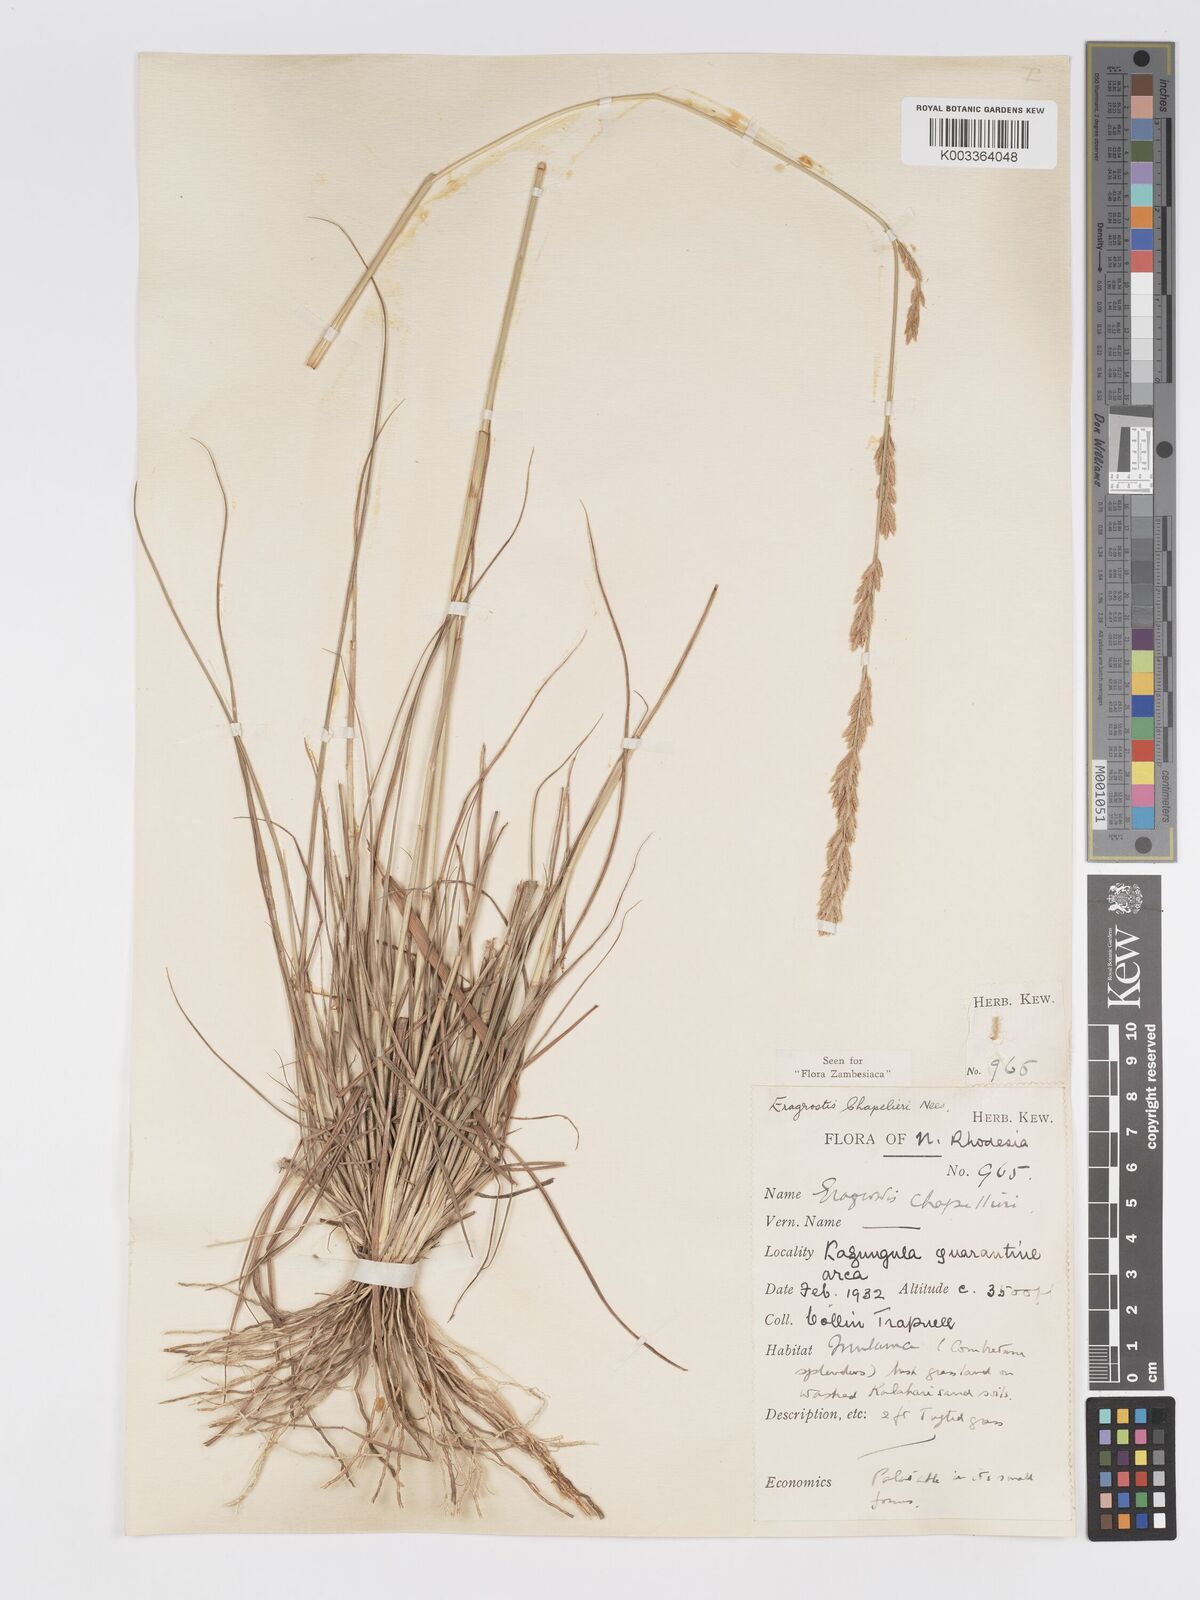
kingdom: Plantae
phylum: Tracheophyta
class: Liliopsida
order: Poales
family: Poaceae
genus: Eragrostis
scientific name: Eragrostis chapelieri
